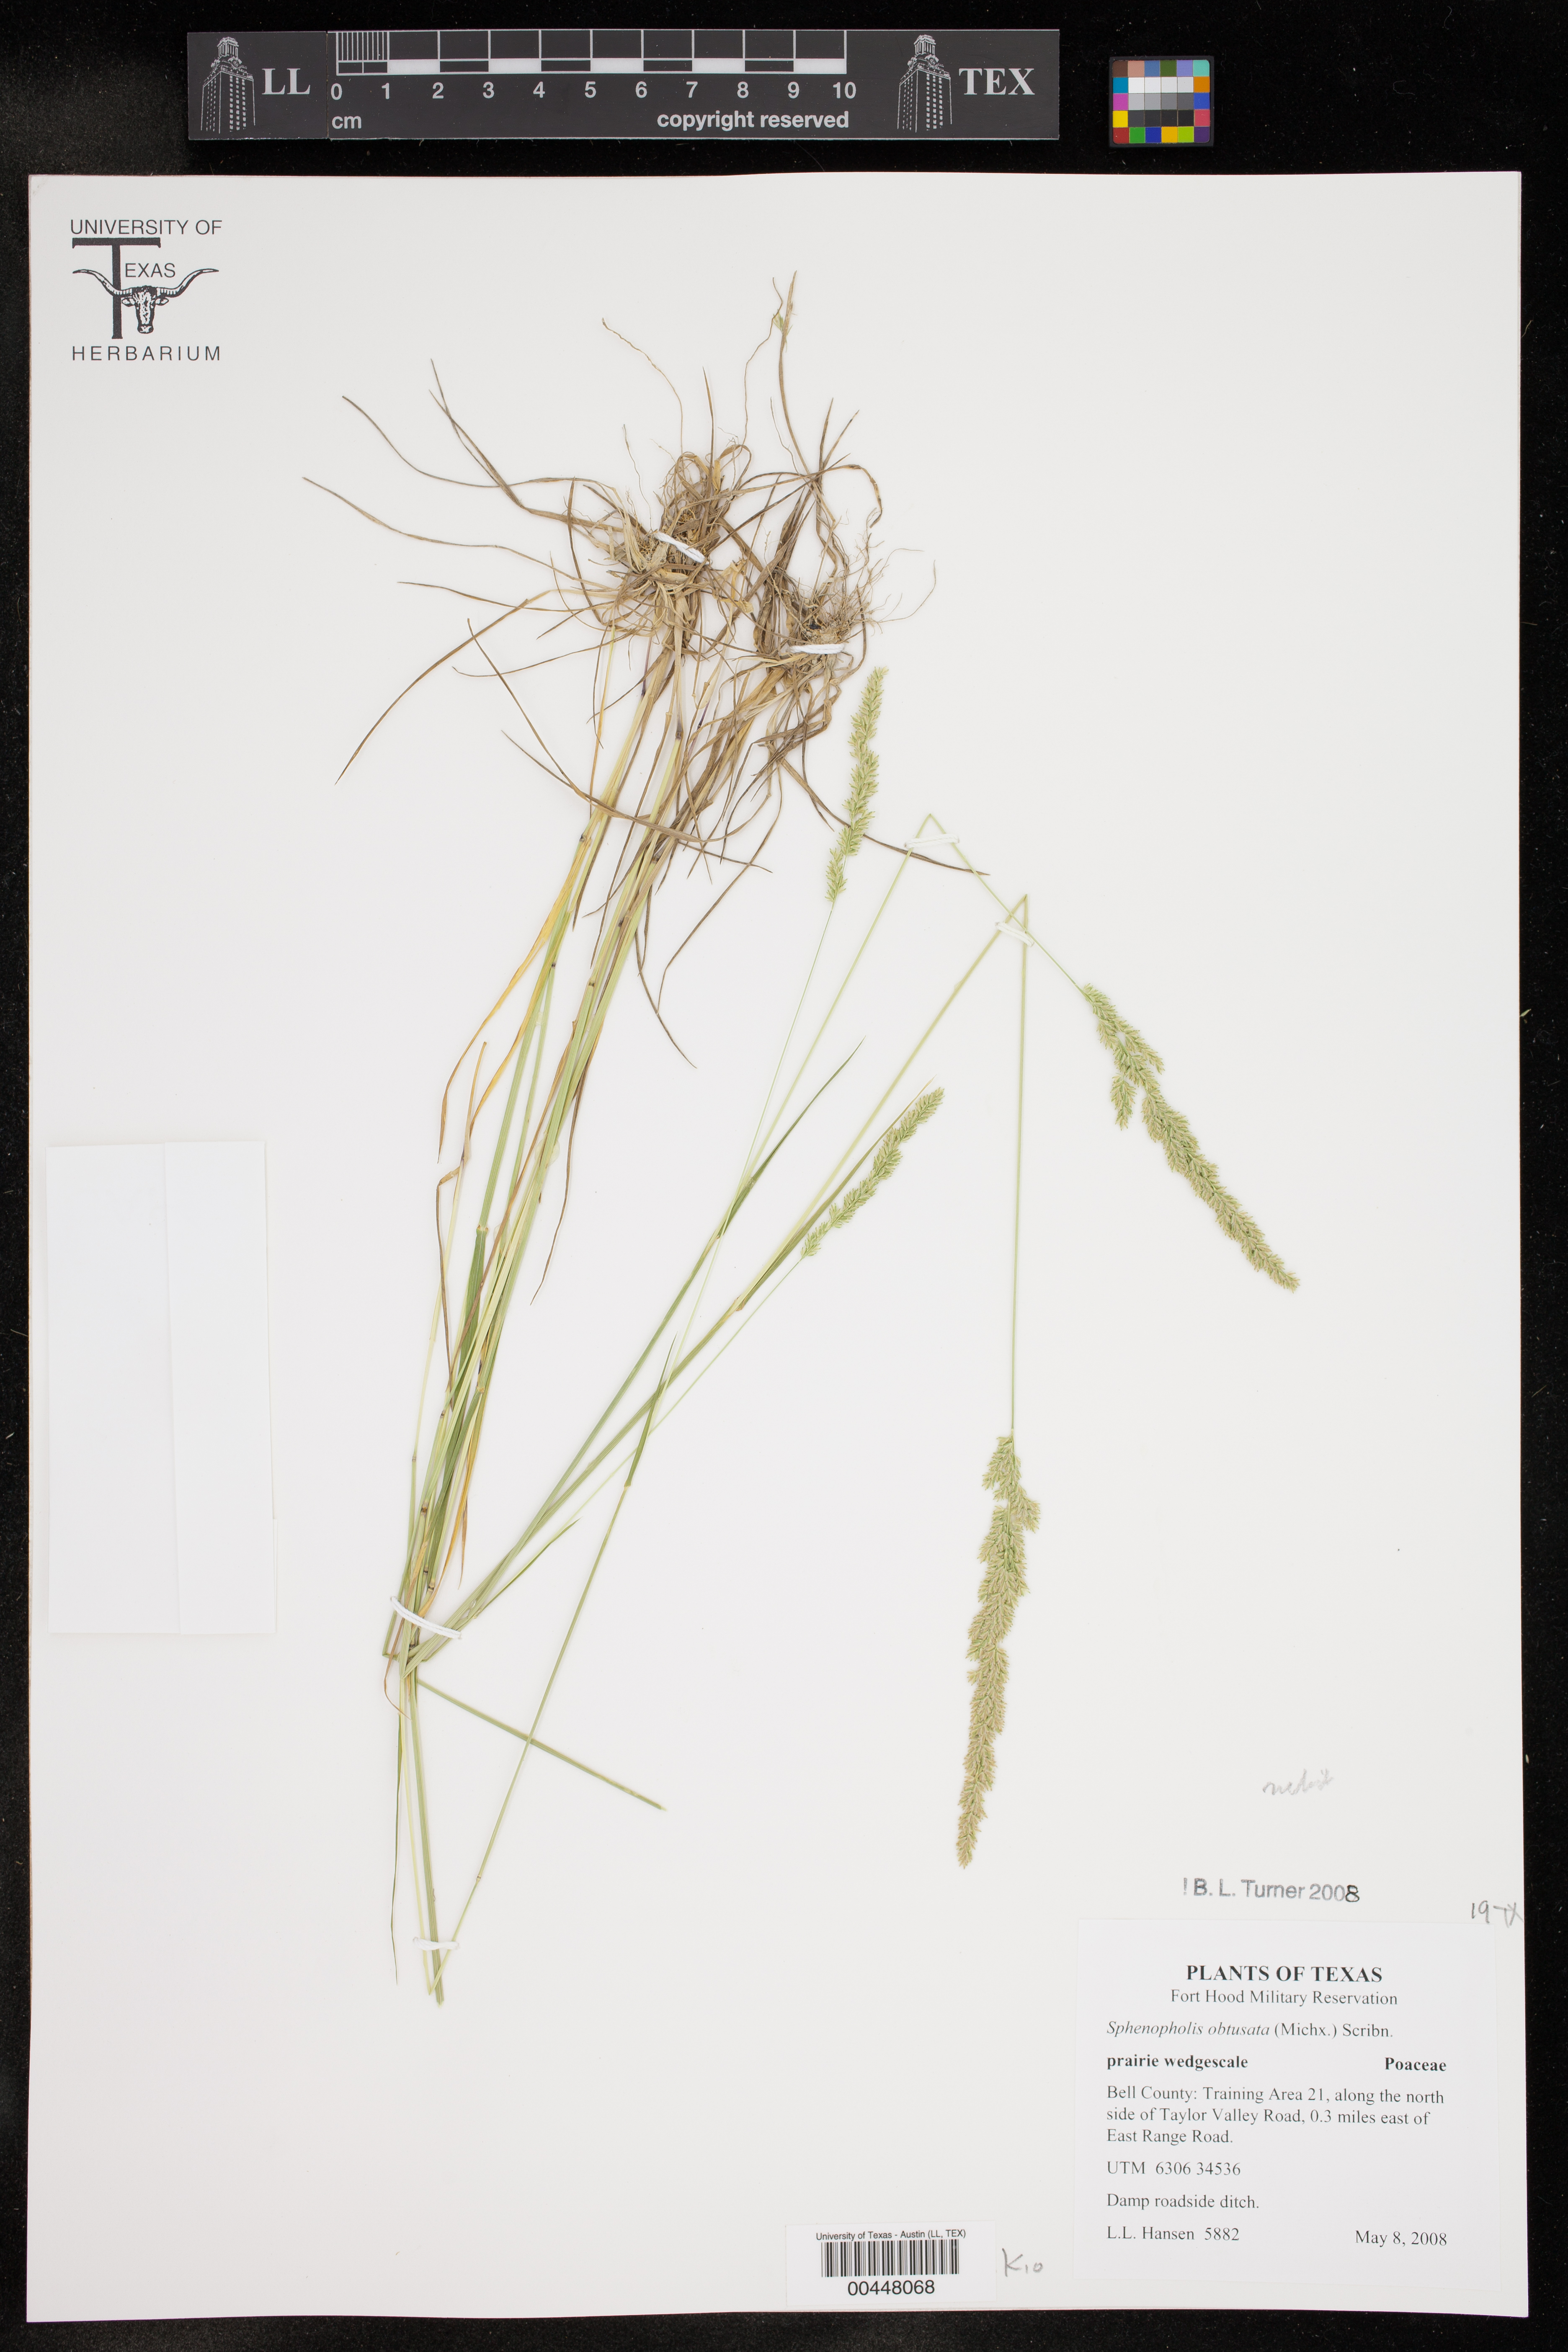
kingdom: Plantae
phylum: Tracheophyta
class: Liliopsida
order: Poales
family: Poaceae
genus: Sphenopholis
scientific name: Sphenopholis obtusata
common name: Prairie grass
